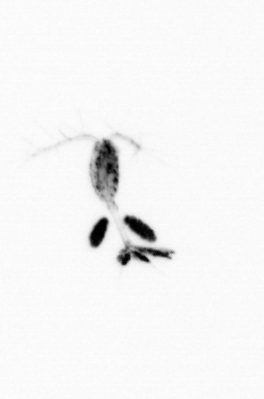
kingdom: Animalia
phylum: Arthropoda
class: Copepoda
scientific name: Copepoda
